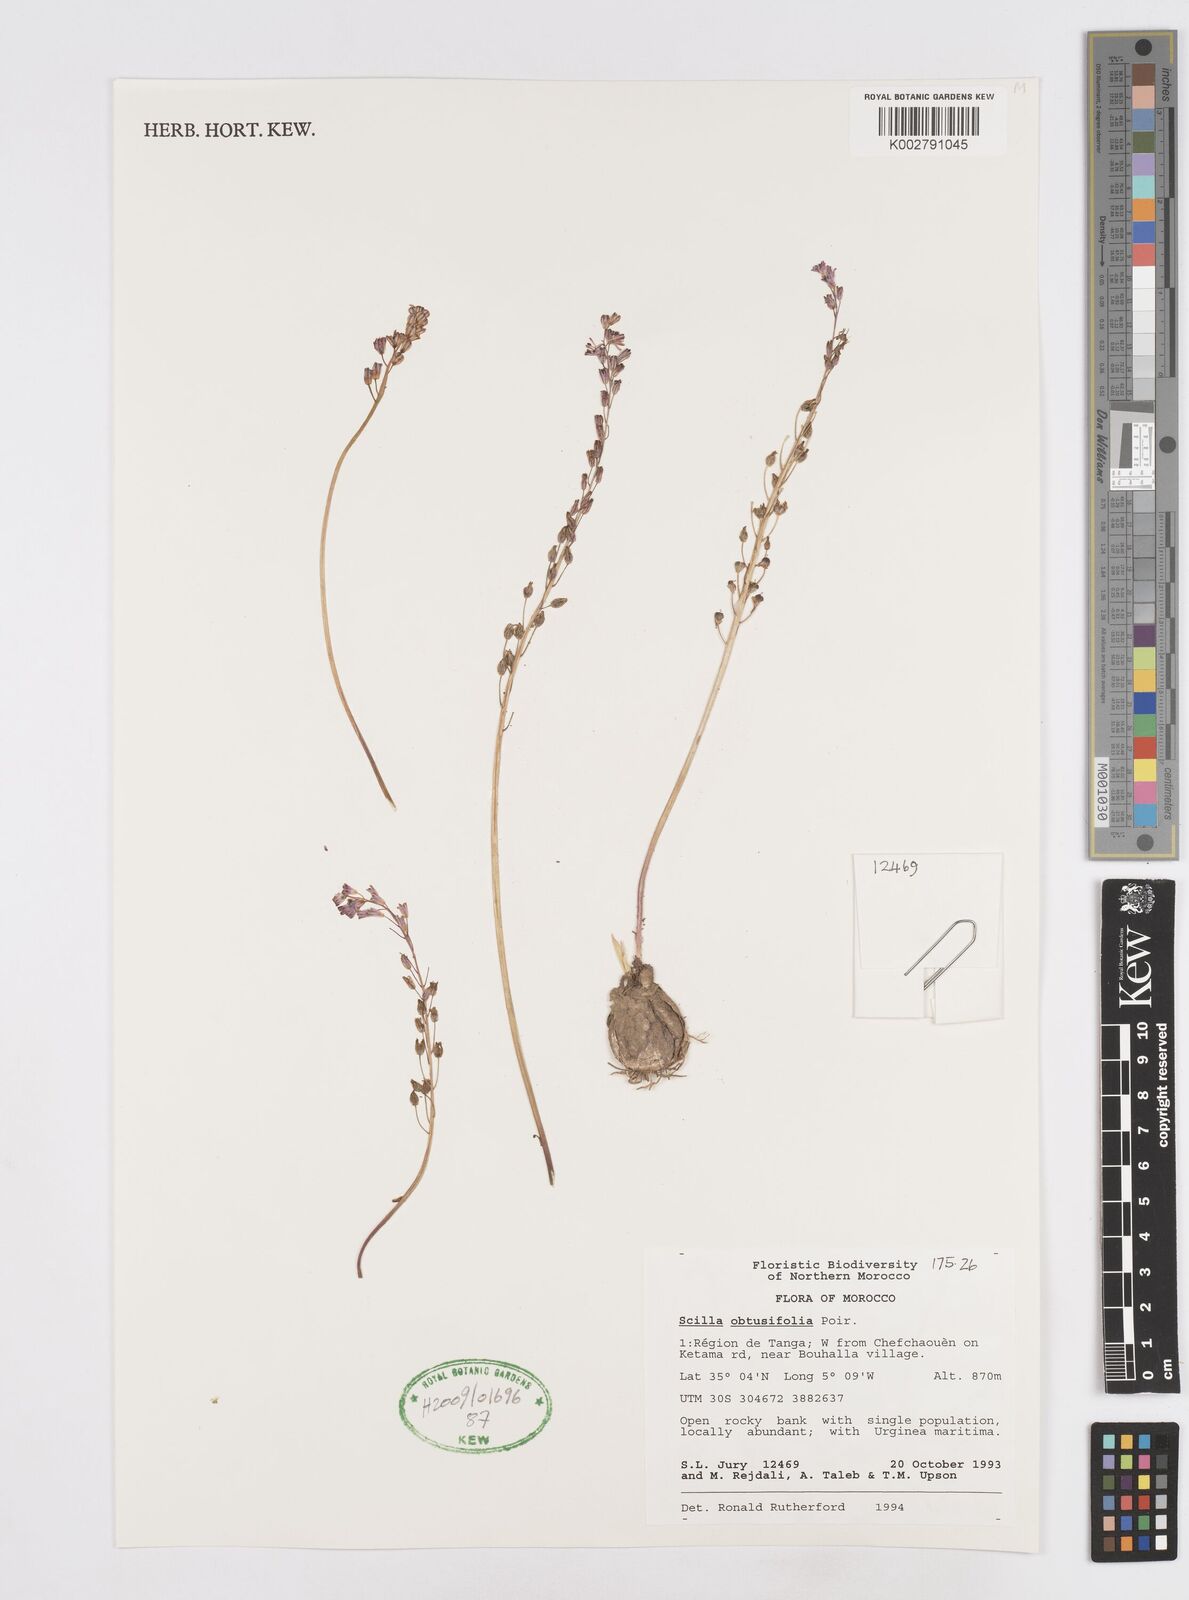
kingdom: Plantae
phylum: Tracheophyta
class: Liliopsida
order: Asparagales
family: Asparagaceae
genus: Prospero
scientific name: Prospero obtusifolium
